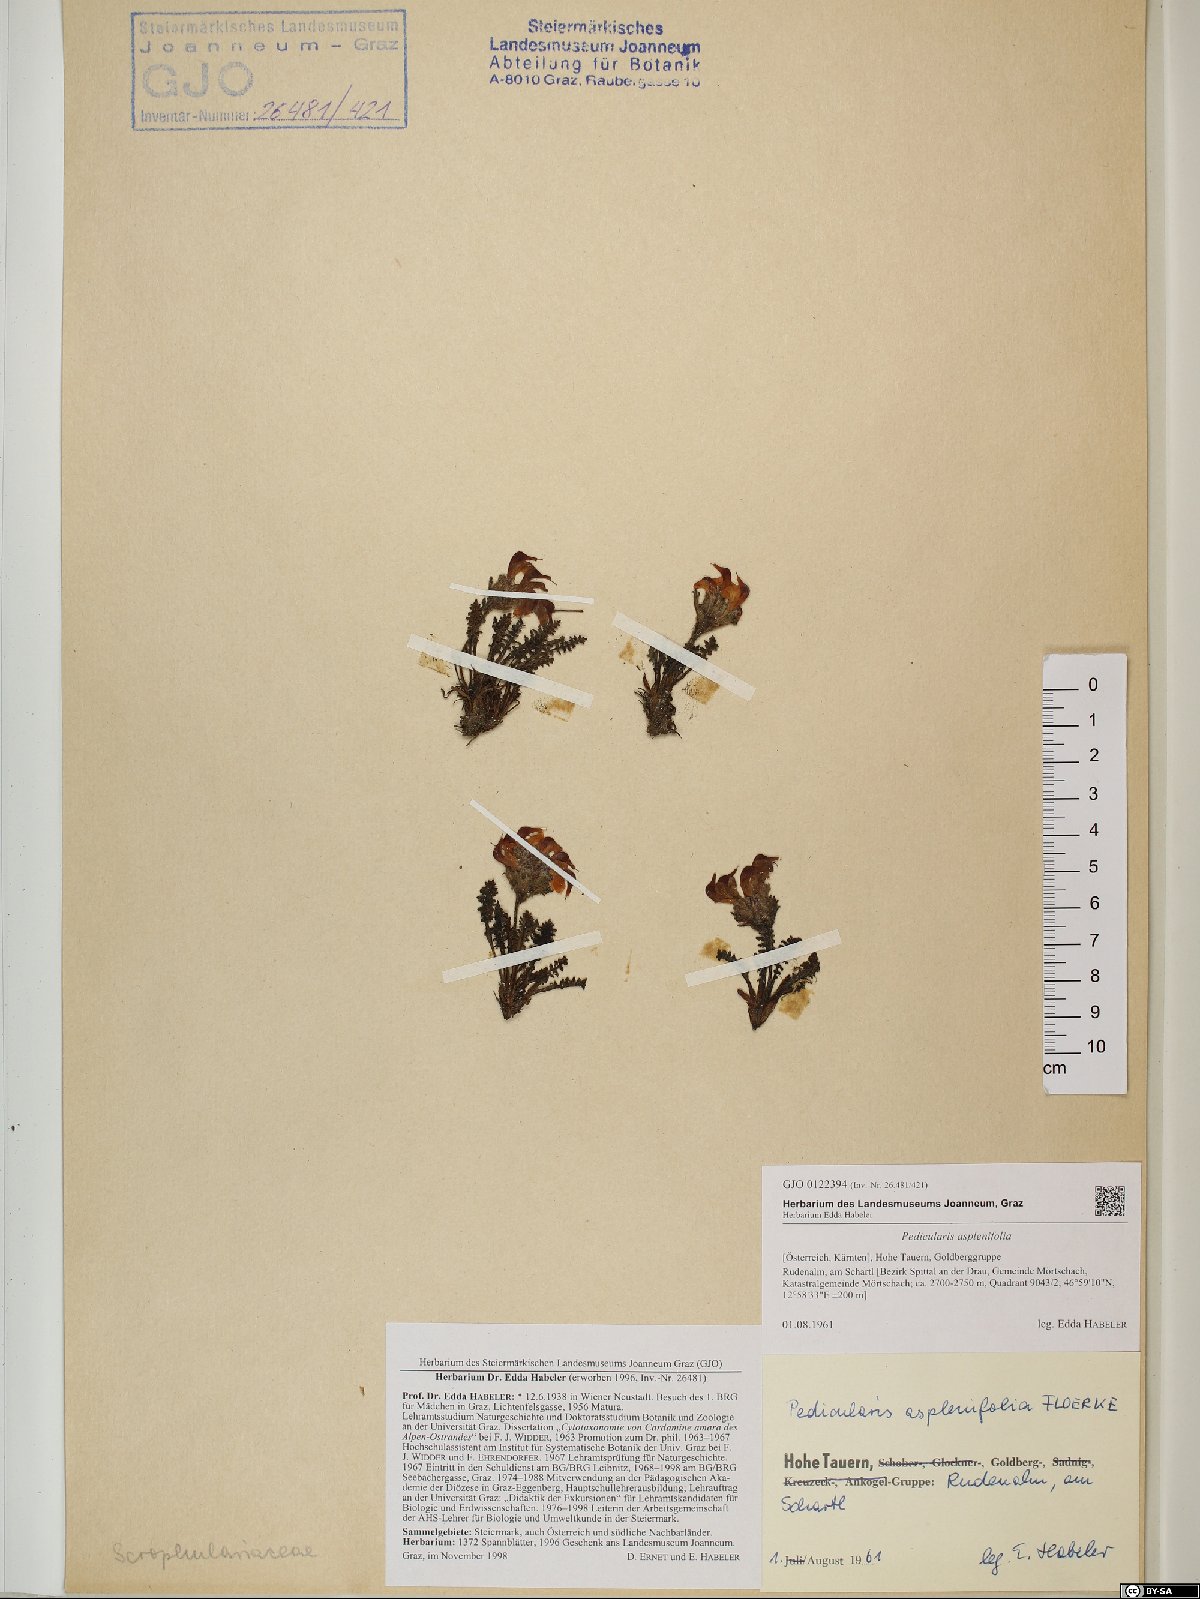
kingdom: Plantae
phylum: Tracheophyta
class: Magnoliopsida
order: Lamiales
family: Orobanchaceae
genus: Pedicularis
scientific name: Pedicularis asplenifolia
